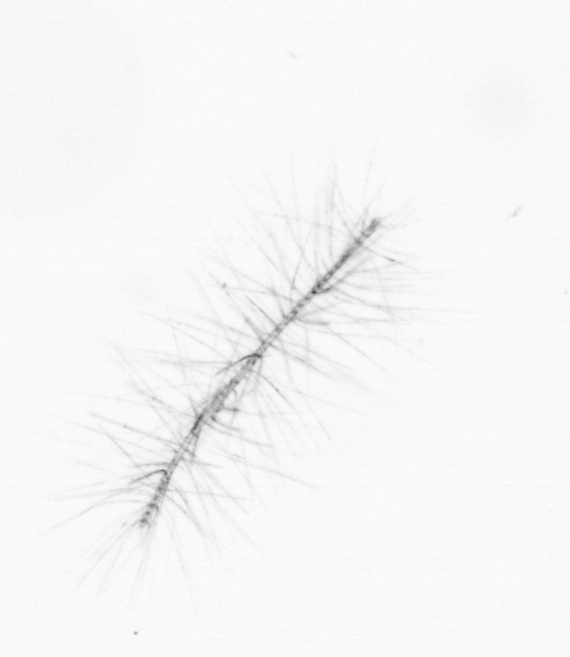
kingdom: Chromista
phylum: Ochrophyta
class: Bacillariophyceae
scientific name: Bacillariophyceae
